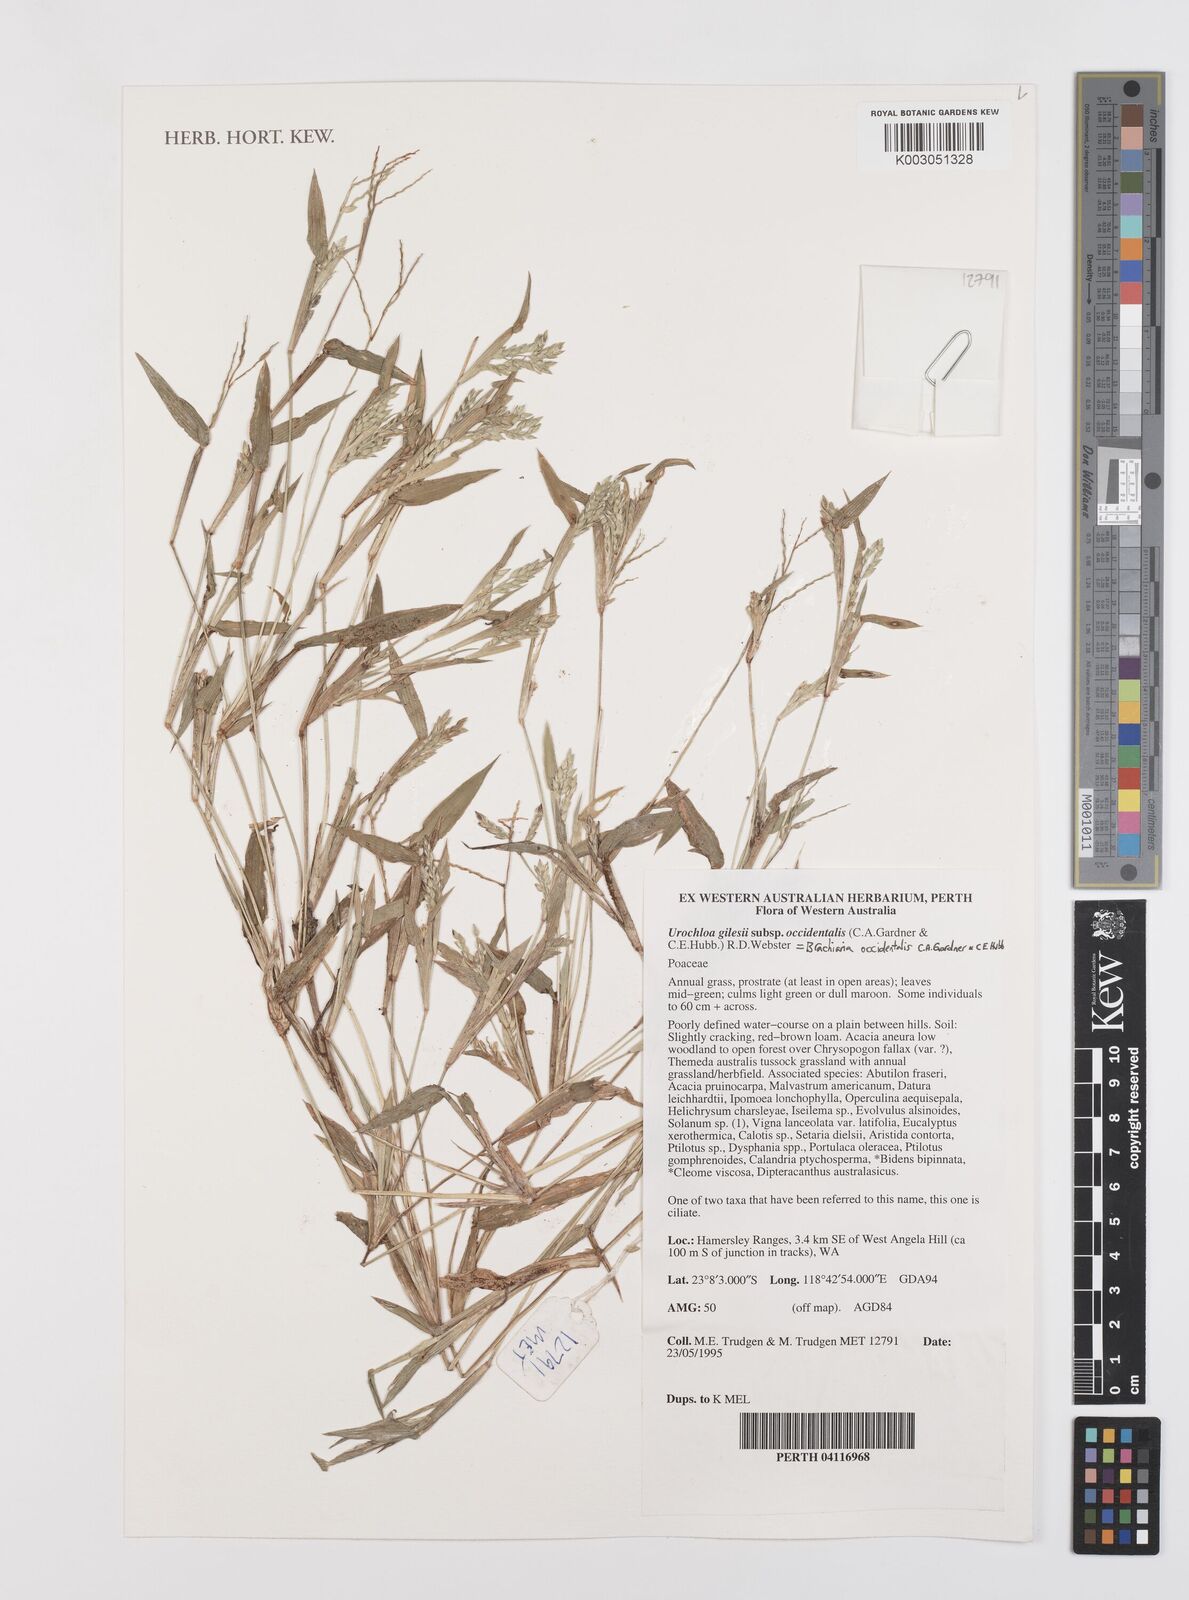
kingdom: Plantae
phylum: Tracheophyta
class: Liliopsida
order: Poales
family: Poaceae
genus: Urochloa
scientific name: Urochloa occidentalis
